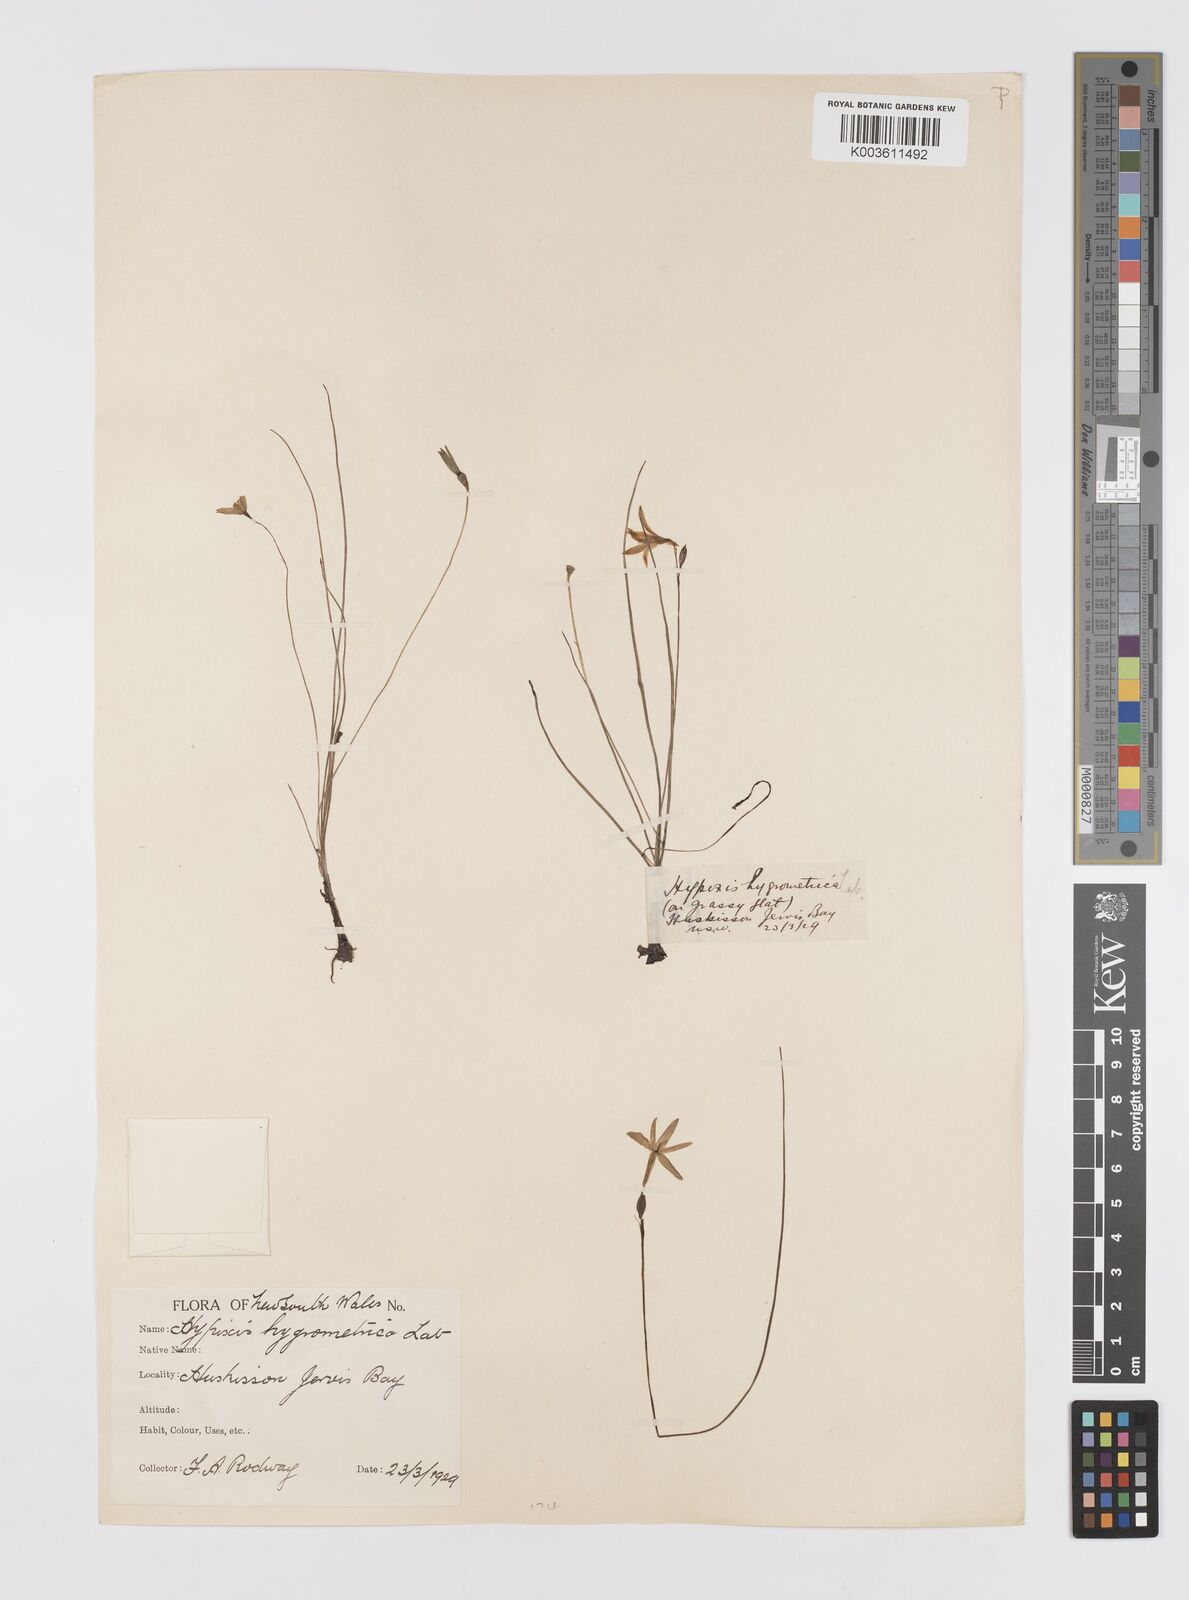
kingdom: Plantae
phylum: Tracheophyta
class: Liliopsida
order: Asparagales
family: Hypoxidaceae
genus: Hypoxis
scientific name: Hypoxis hygrometrica
